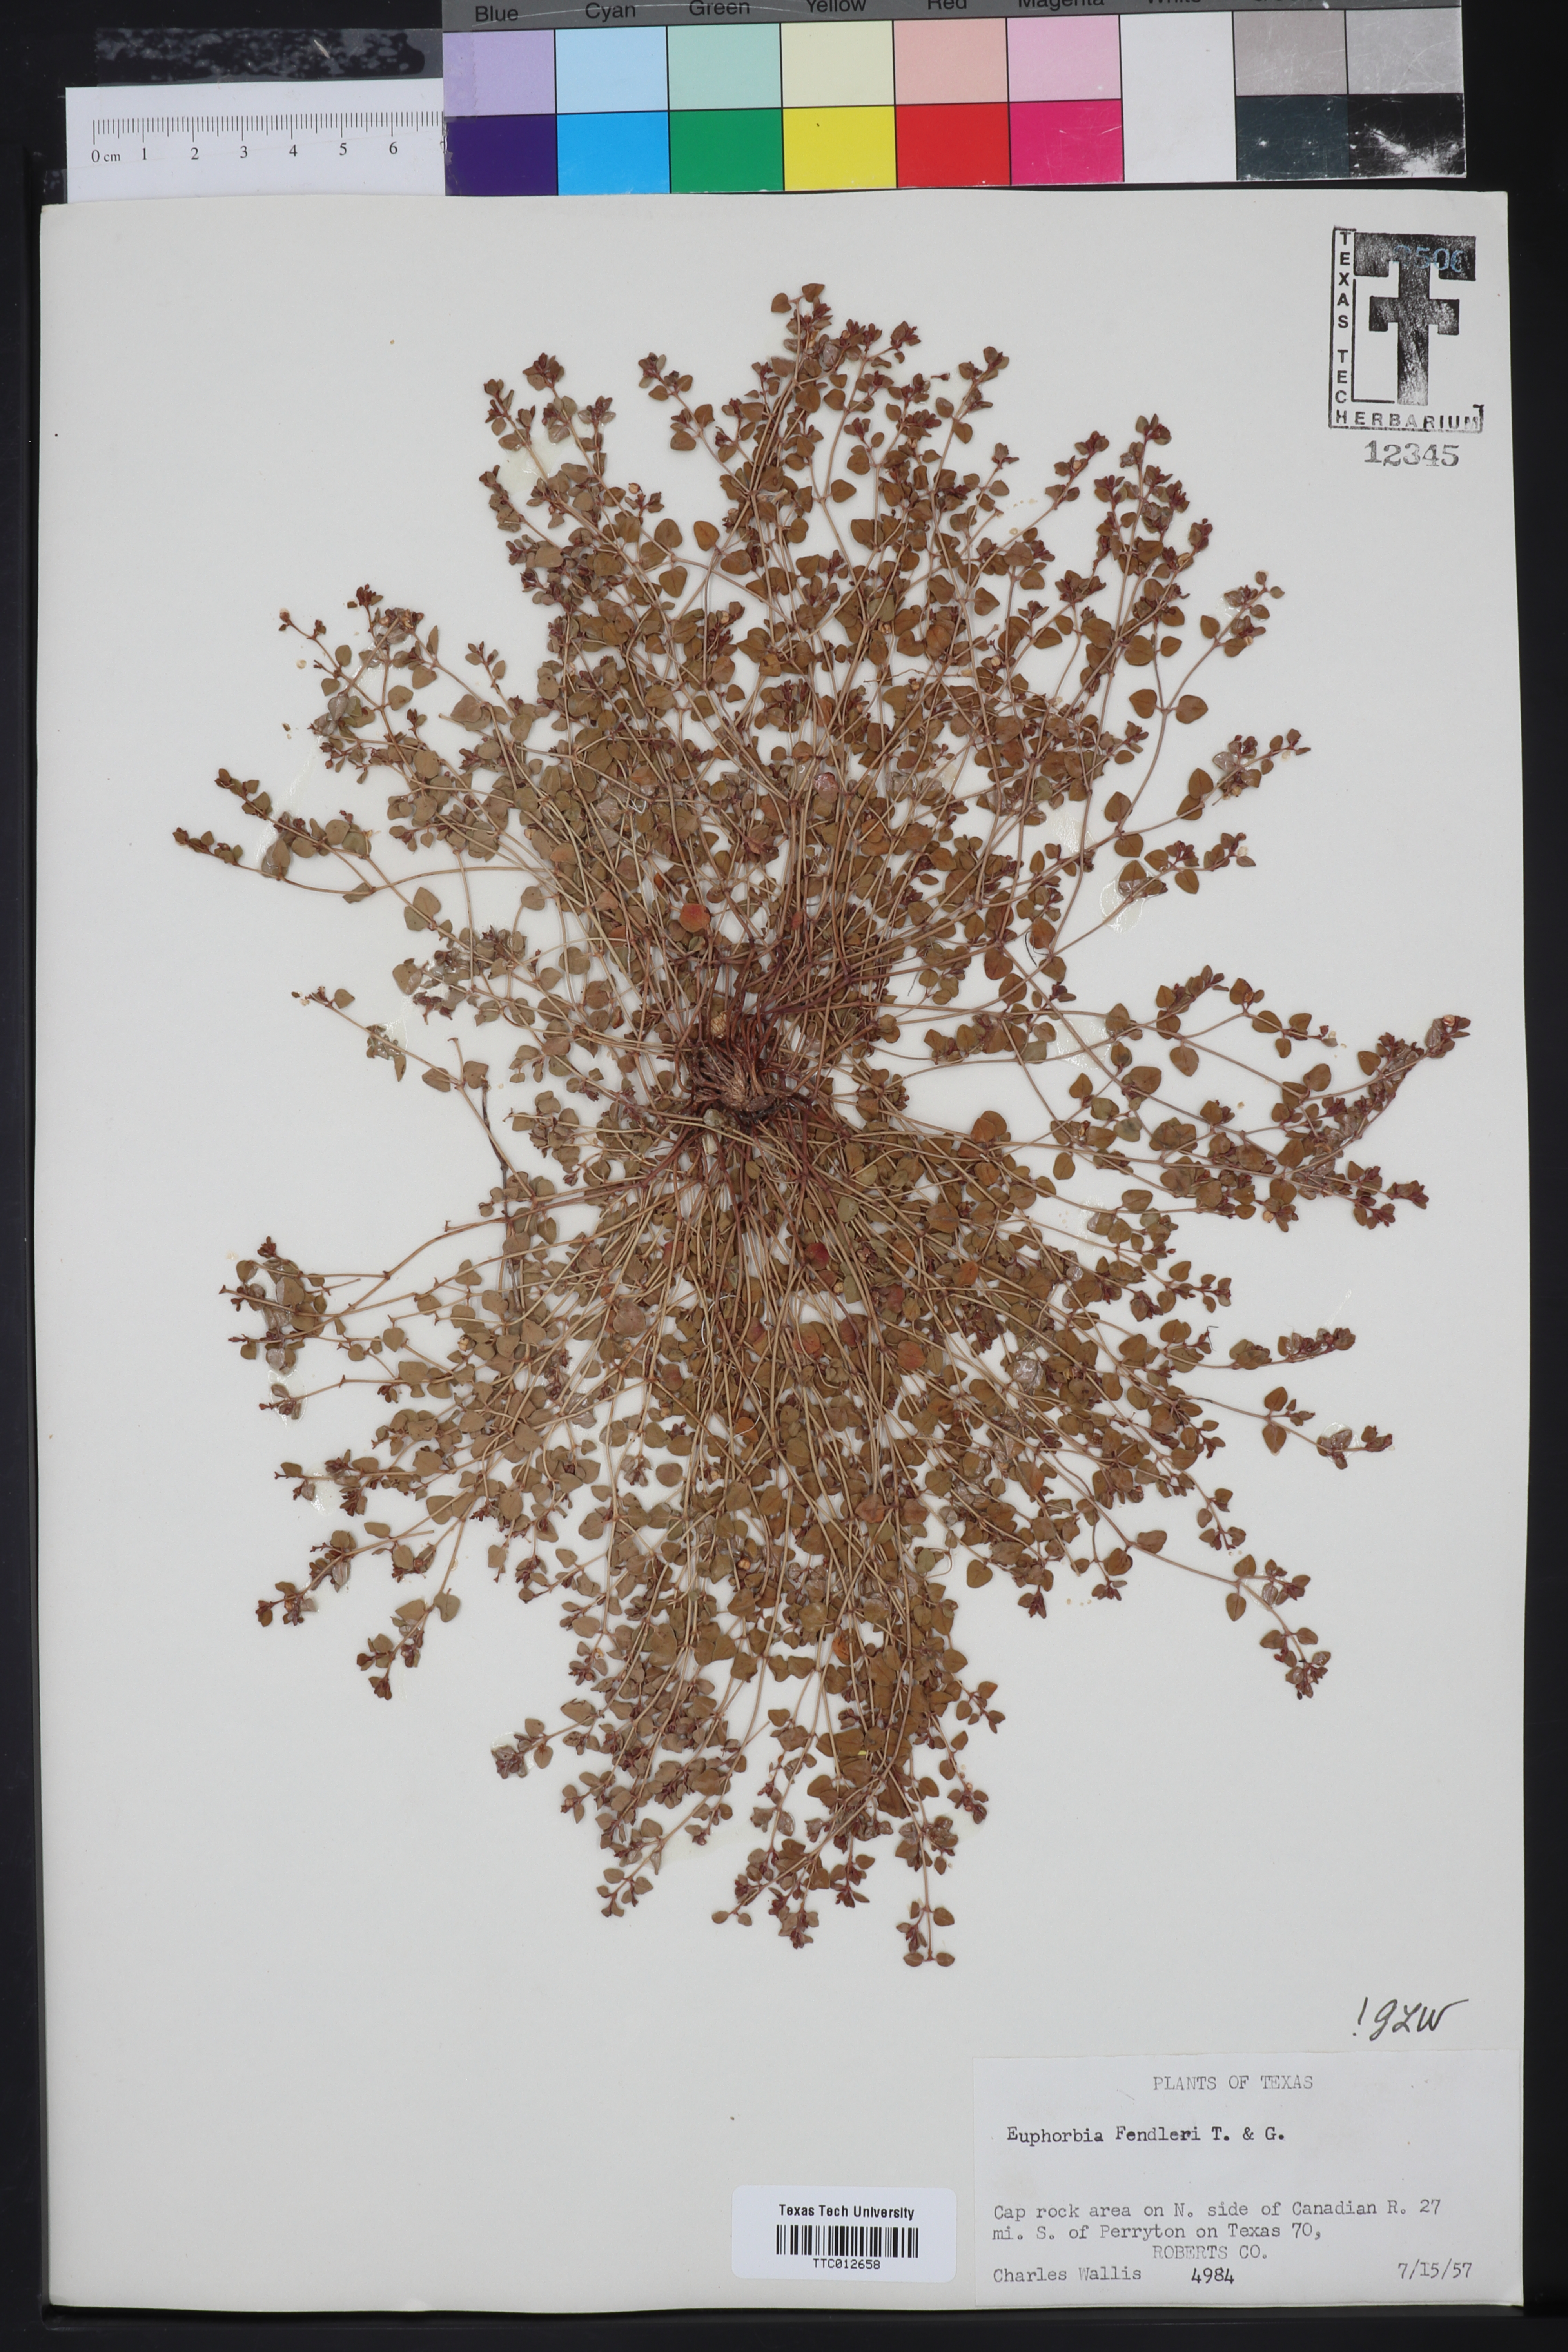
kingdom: Plantae
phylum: Tracheophyta
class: Magnoliopsida
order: Malpighiales
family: Euphorbiaceae
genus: Euphorbia
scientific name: Euphorbia fendleri
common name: Fendler's euphorbia
